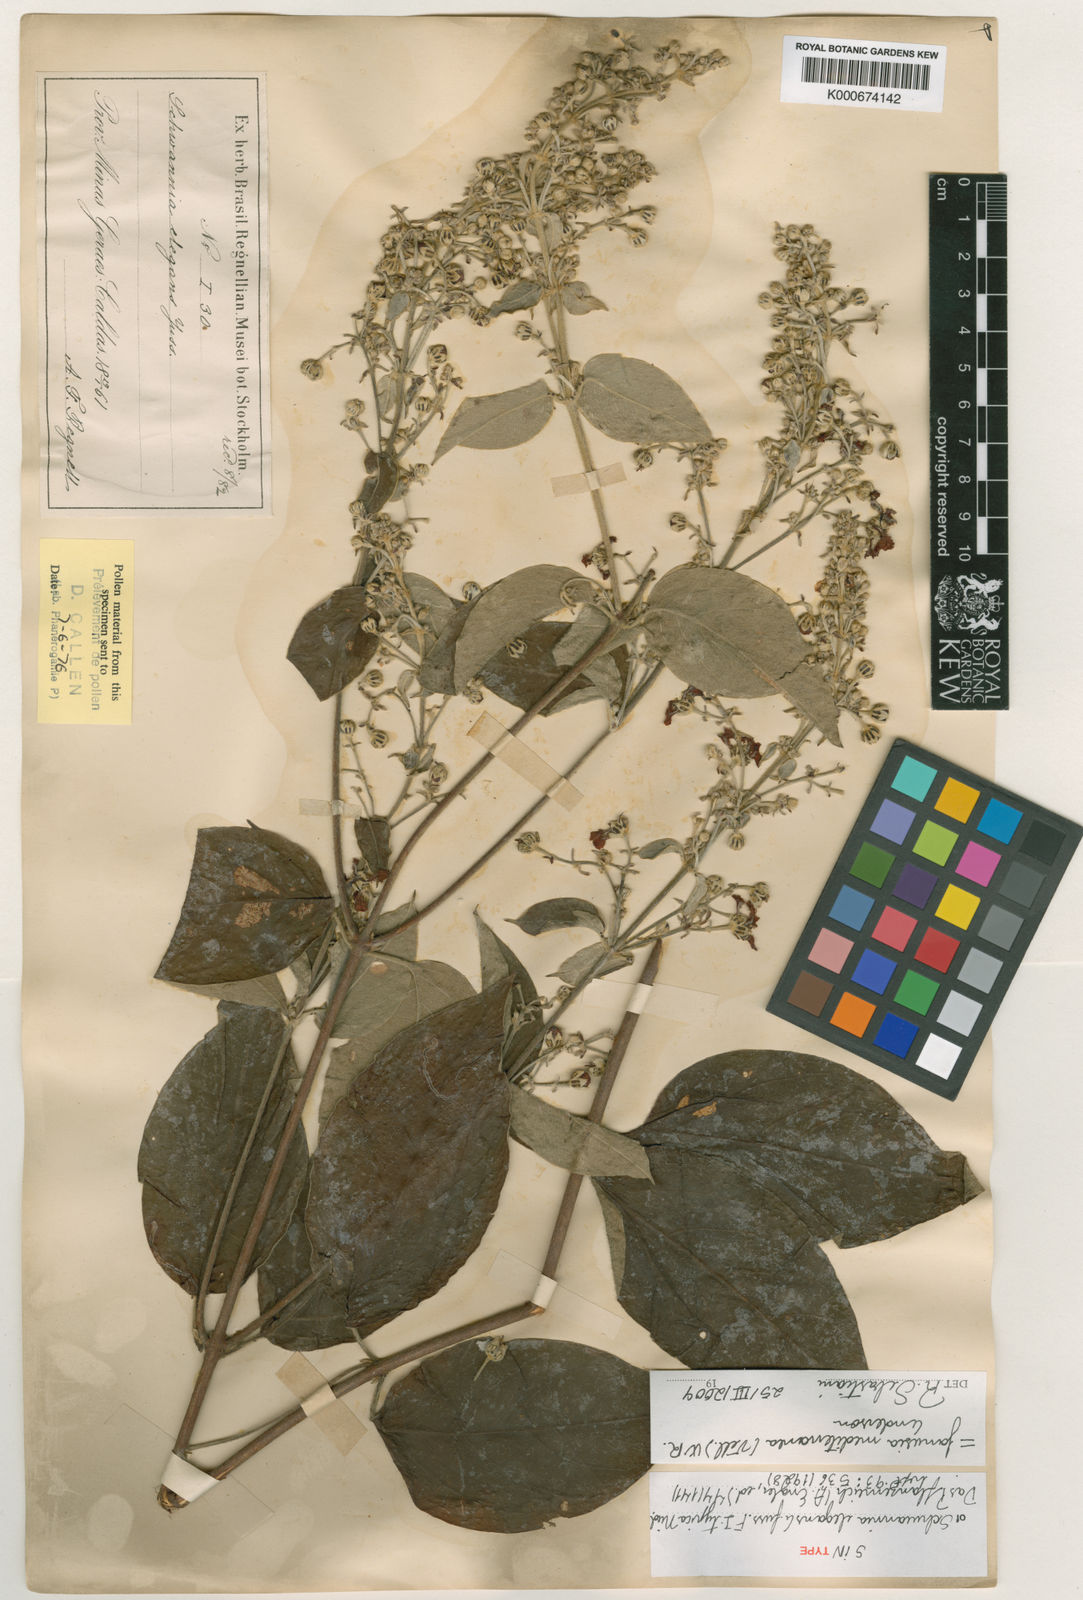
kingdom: Plantae
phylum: Tracheophyta
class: Magnoliopsida
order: Malpighiales
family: Malpighiaceae
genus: Janusia
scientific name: Janusia mediterranea
